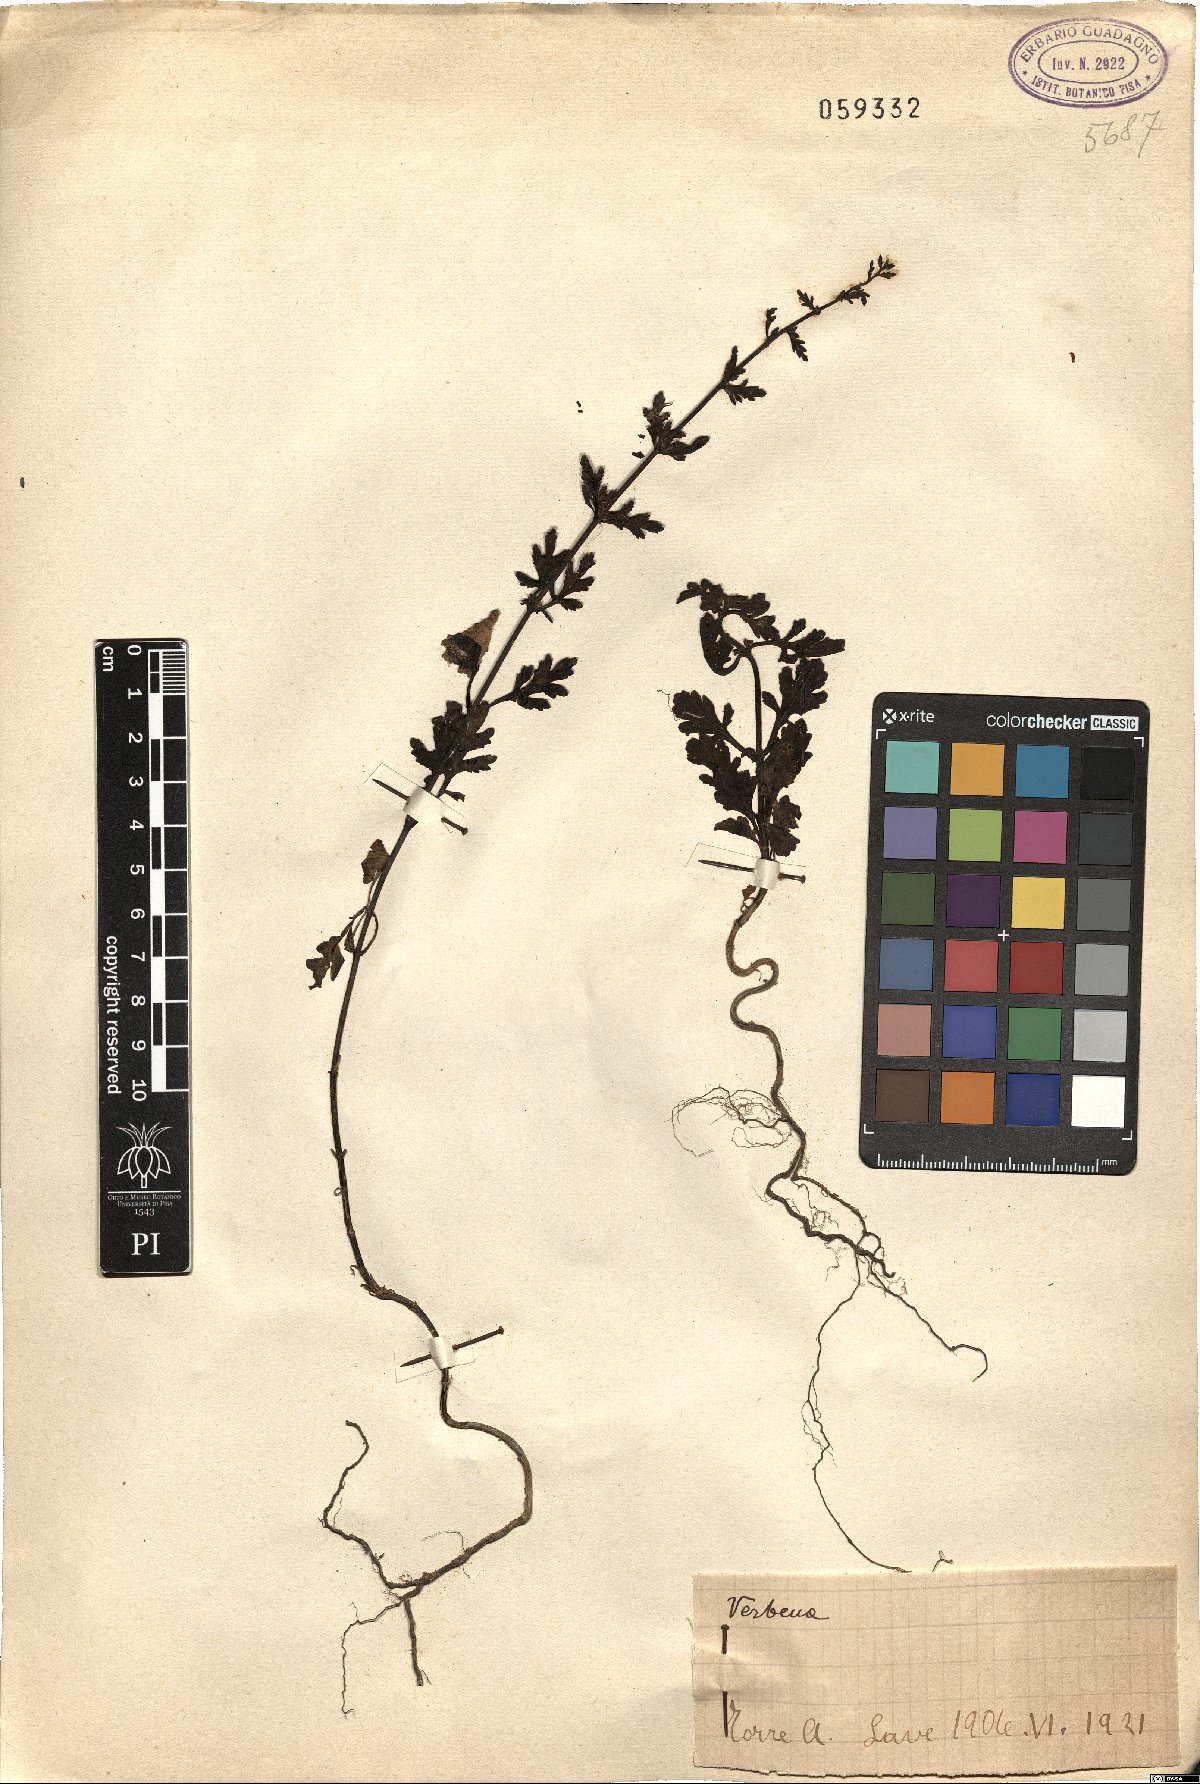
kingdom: Plantae
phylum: Tracheophyta
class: Magnoliopsida
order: Lamiales
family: Verbenaceae
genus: Verbena
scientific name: Verbena
